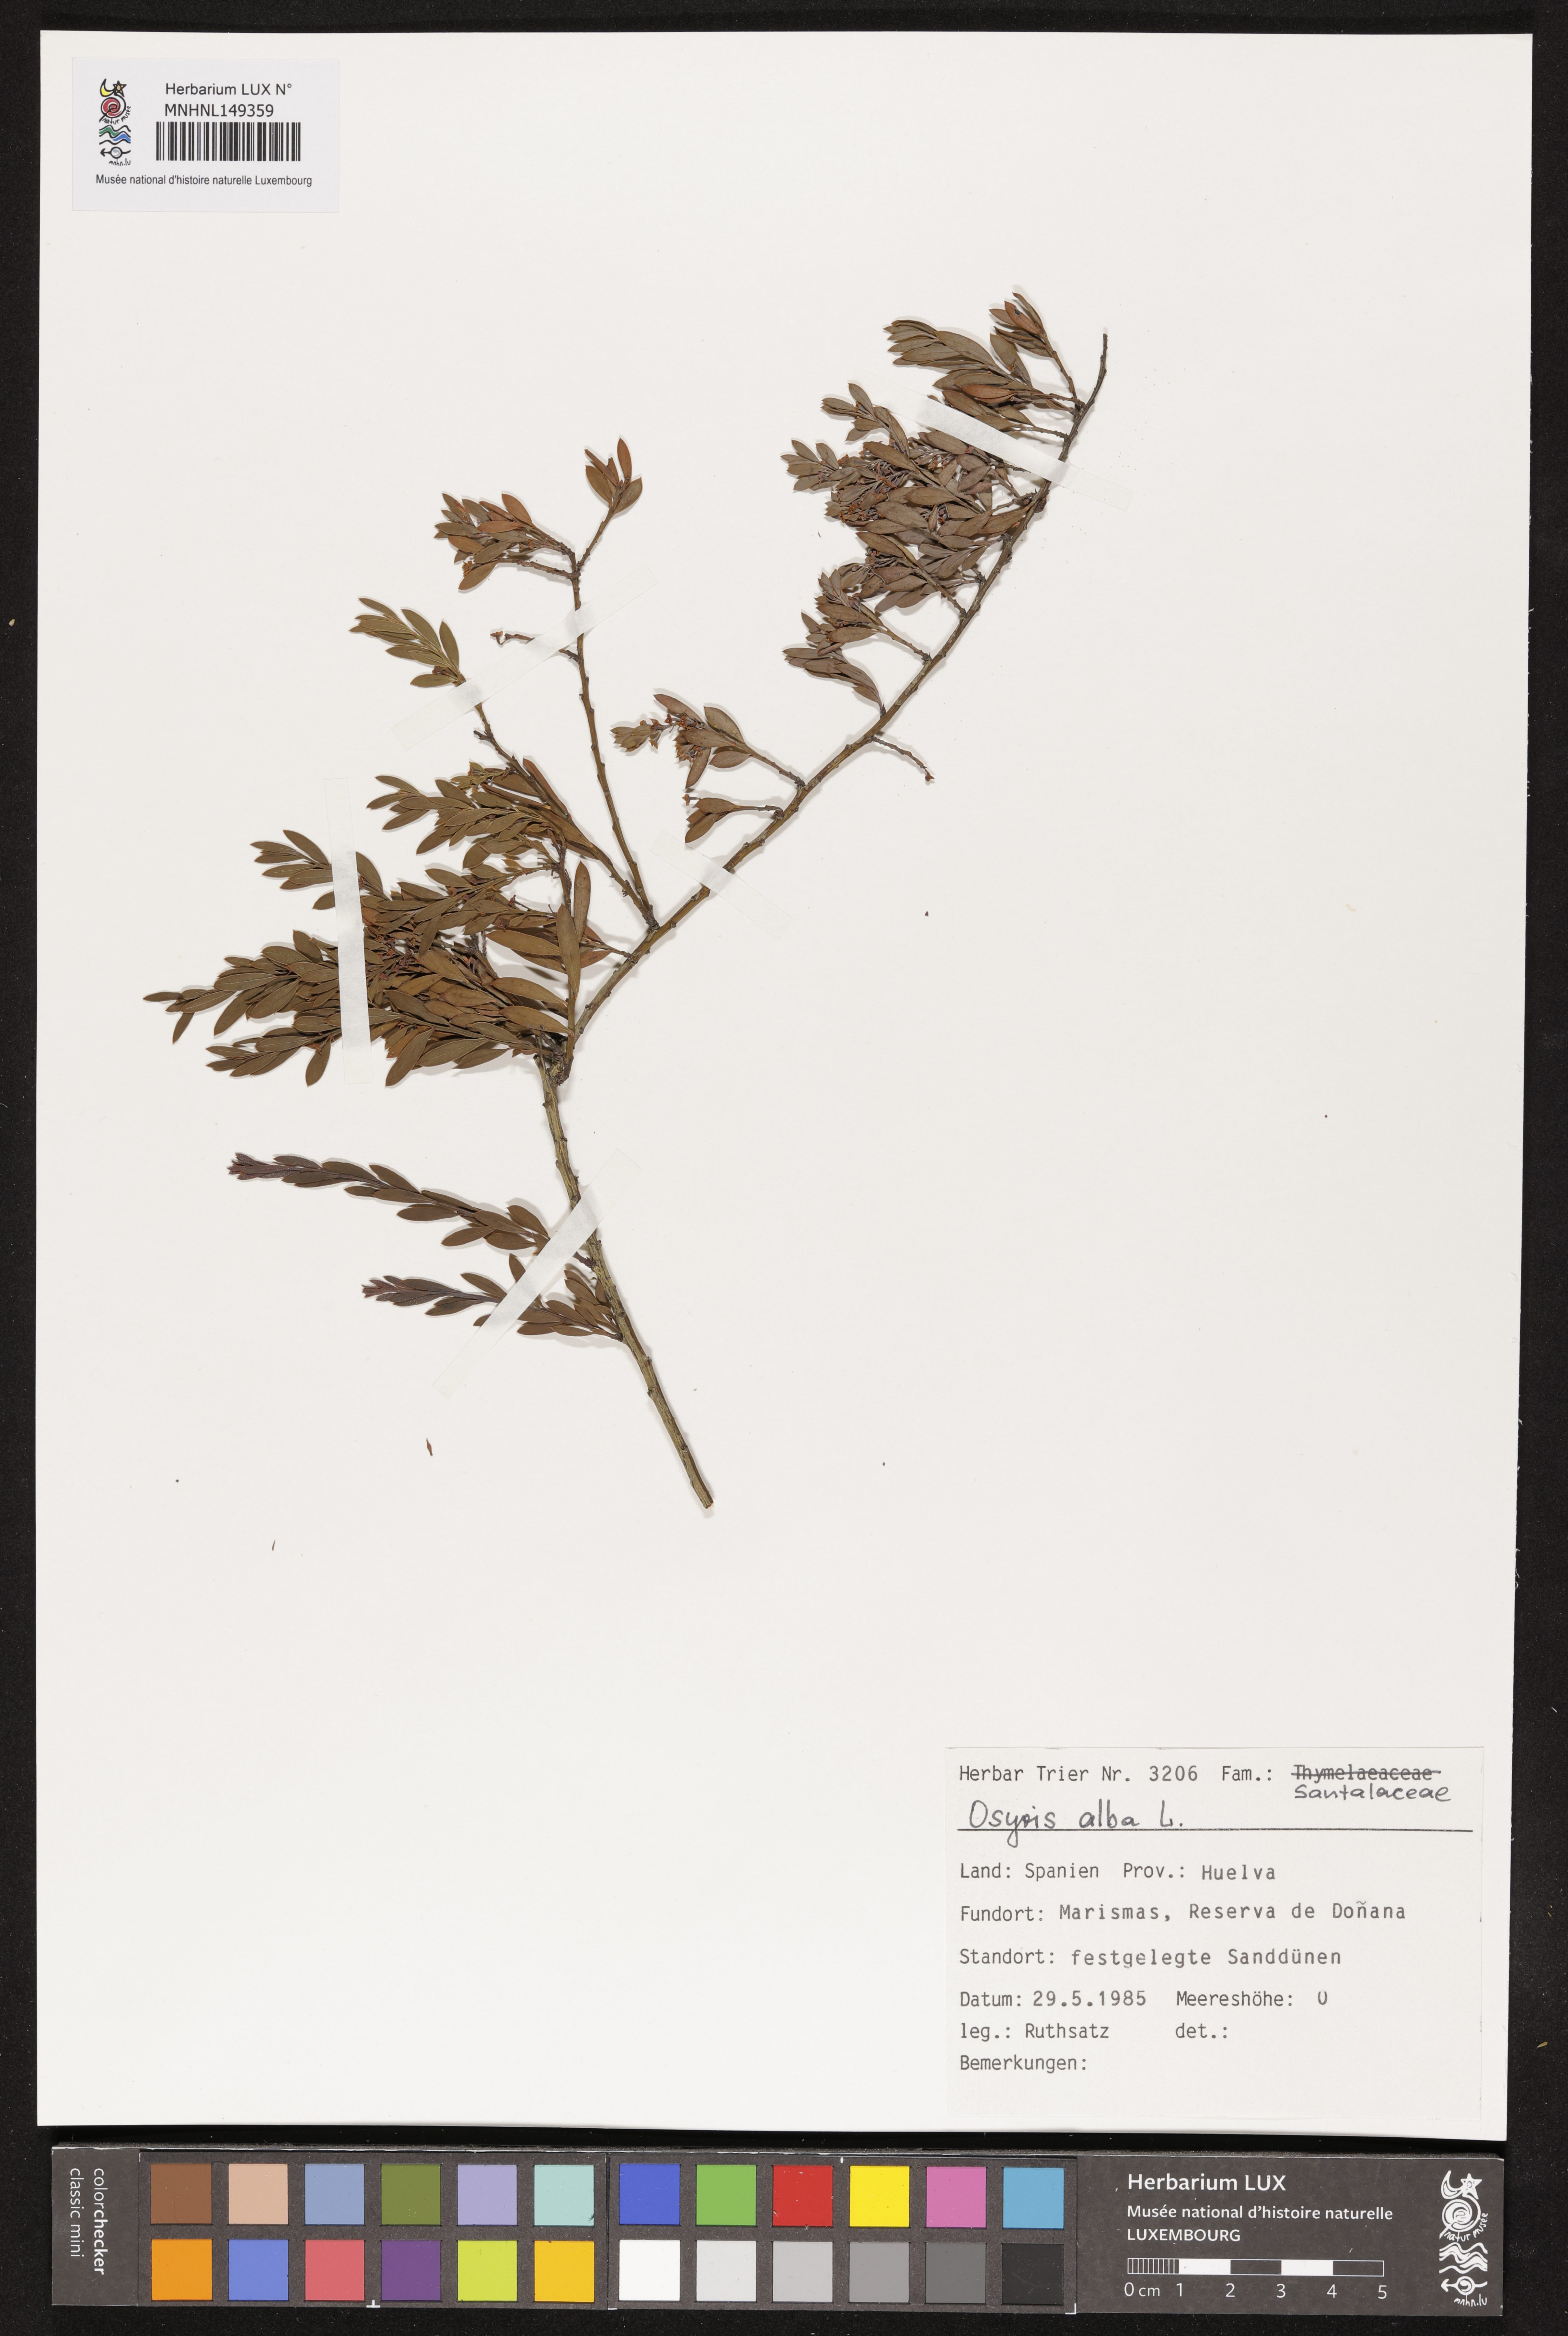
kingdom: Plantae
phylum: Tracheophyta
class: Magnoliopsida
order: Santalales
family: Santalaceae
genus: Osyris
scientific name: Osyris alba
